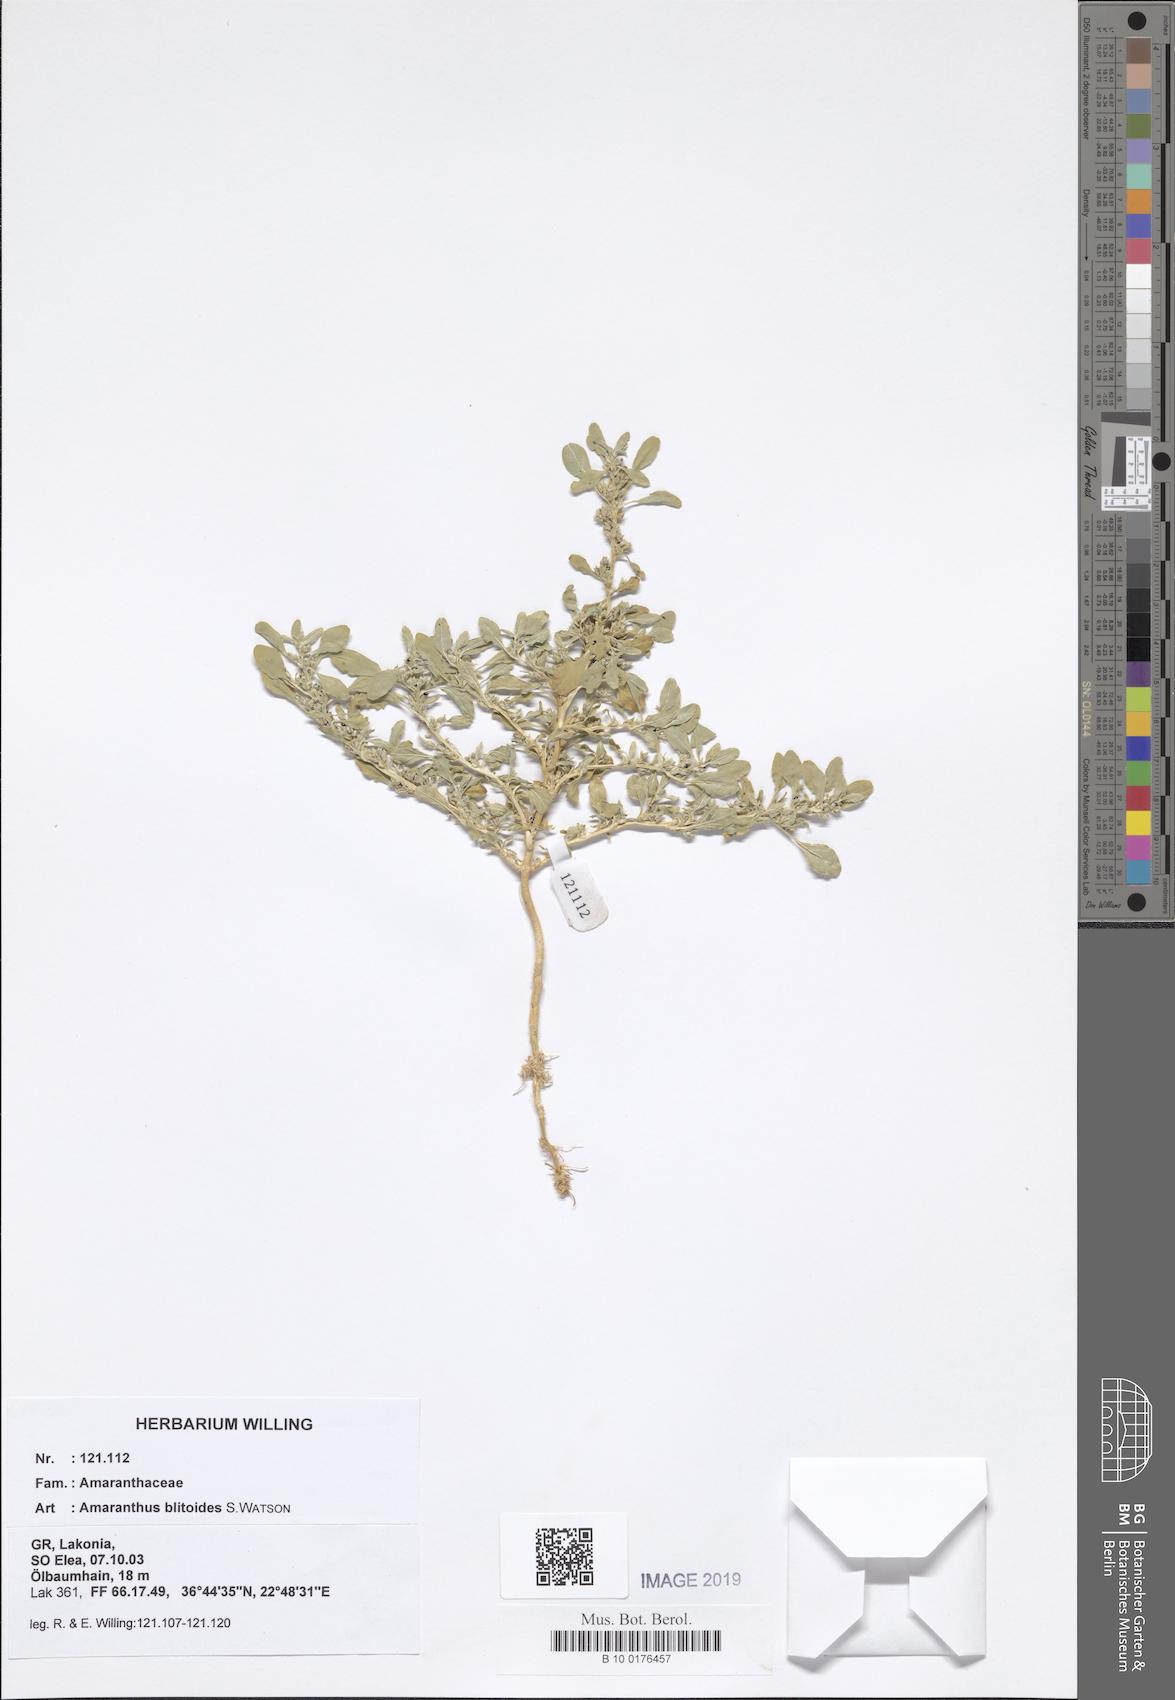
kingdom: Plantae
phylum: Tracheophyta
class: Magnoliopsida
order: Caryophyllales
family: Amaranthaceae
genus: Amaranthus
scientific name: Amaranthus blitoides
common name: Prostrate pigweed
